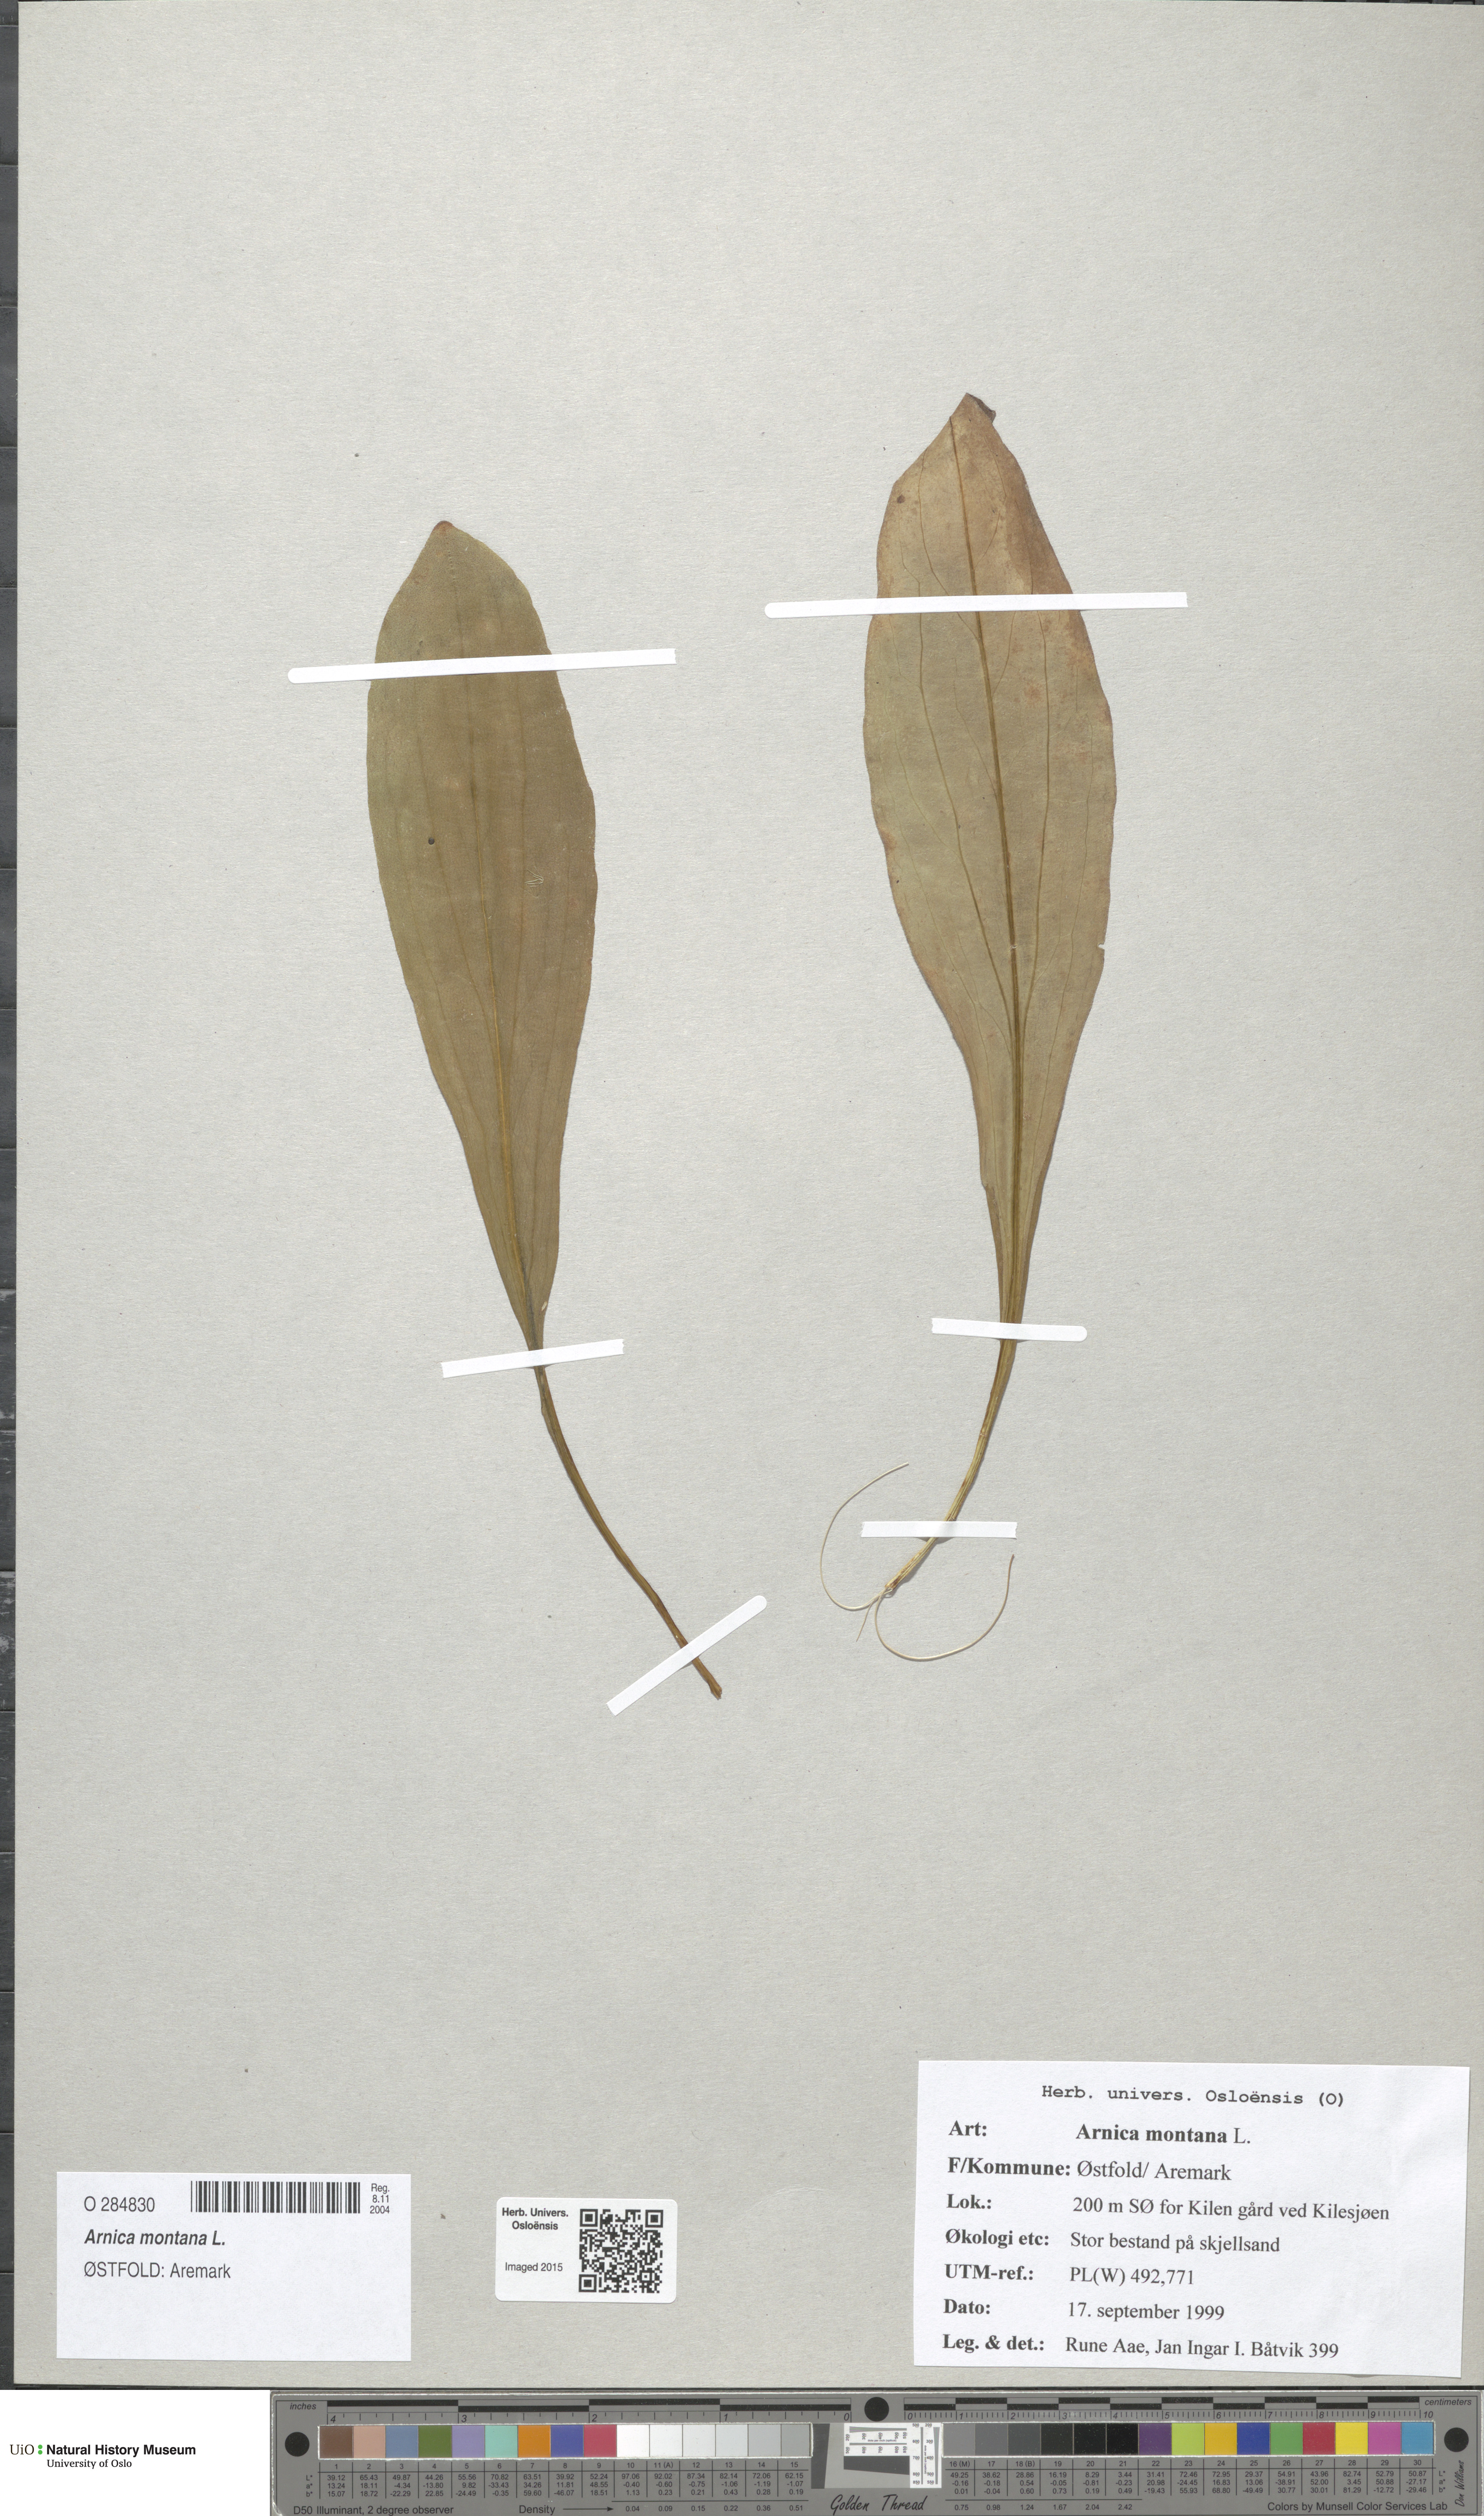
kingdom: Plantae
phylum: Tracheophyta
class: Magnoliopsida
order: Asterales
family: Asteraceae
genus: Arnica
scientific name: Arnica montana
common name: Leopard's bane
